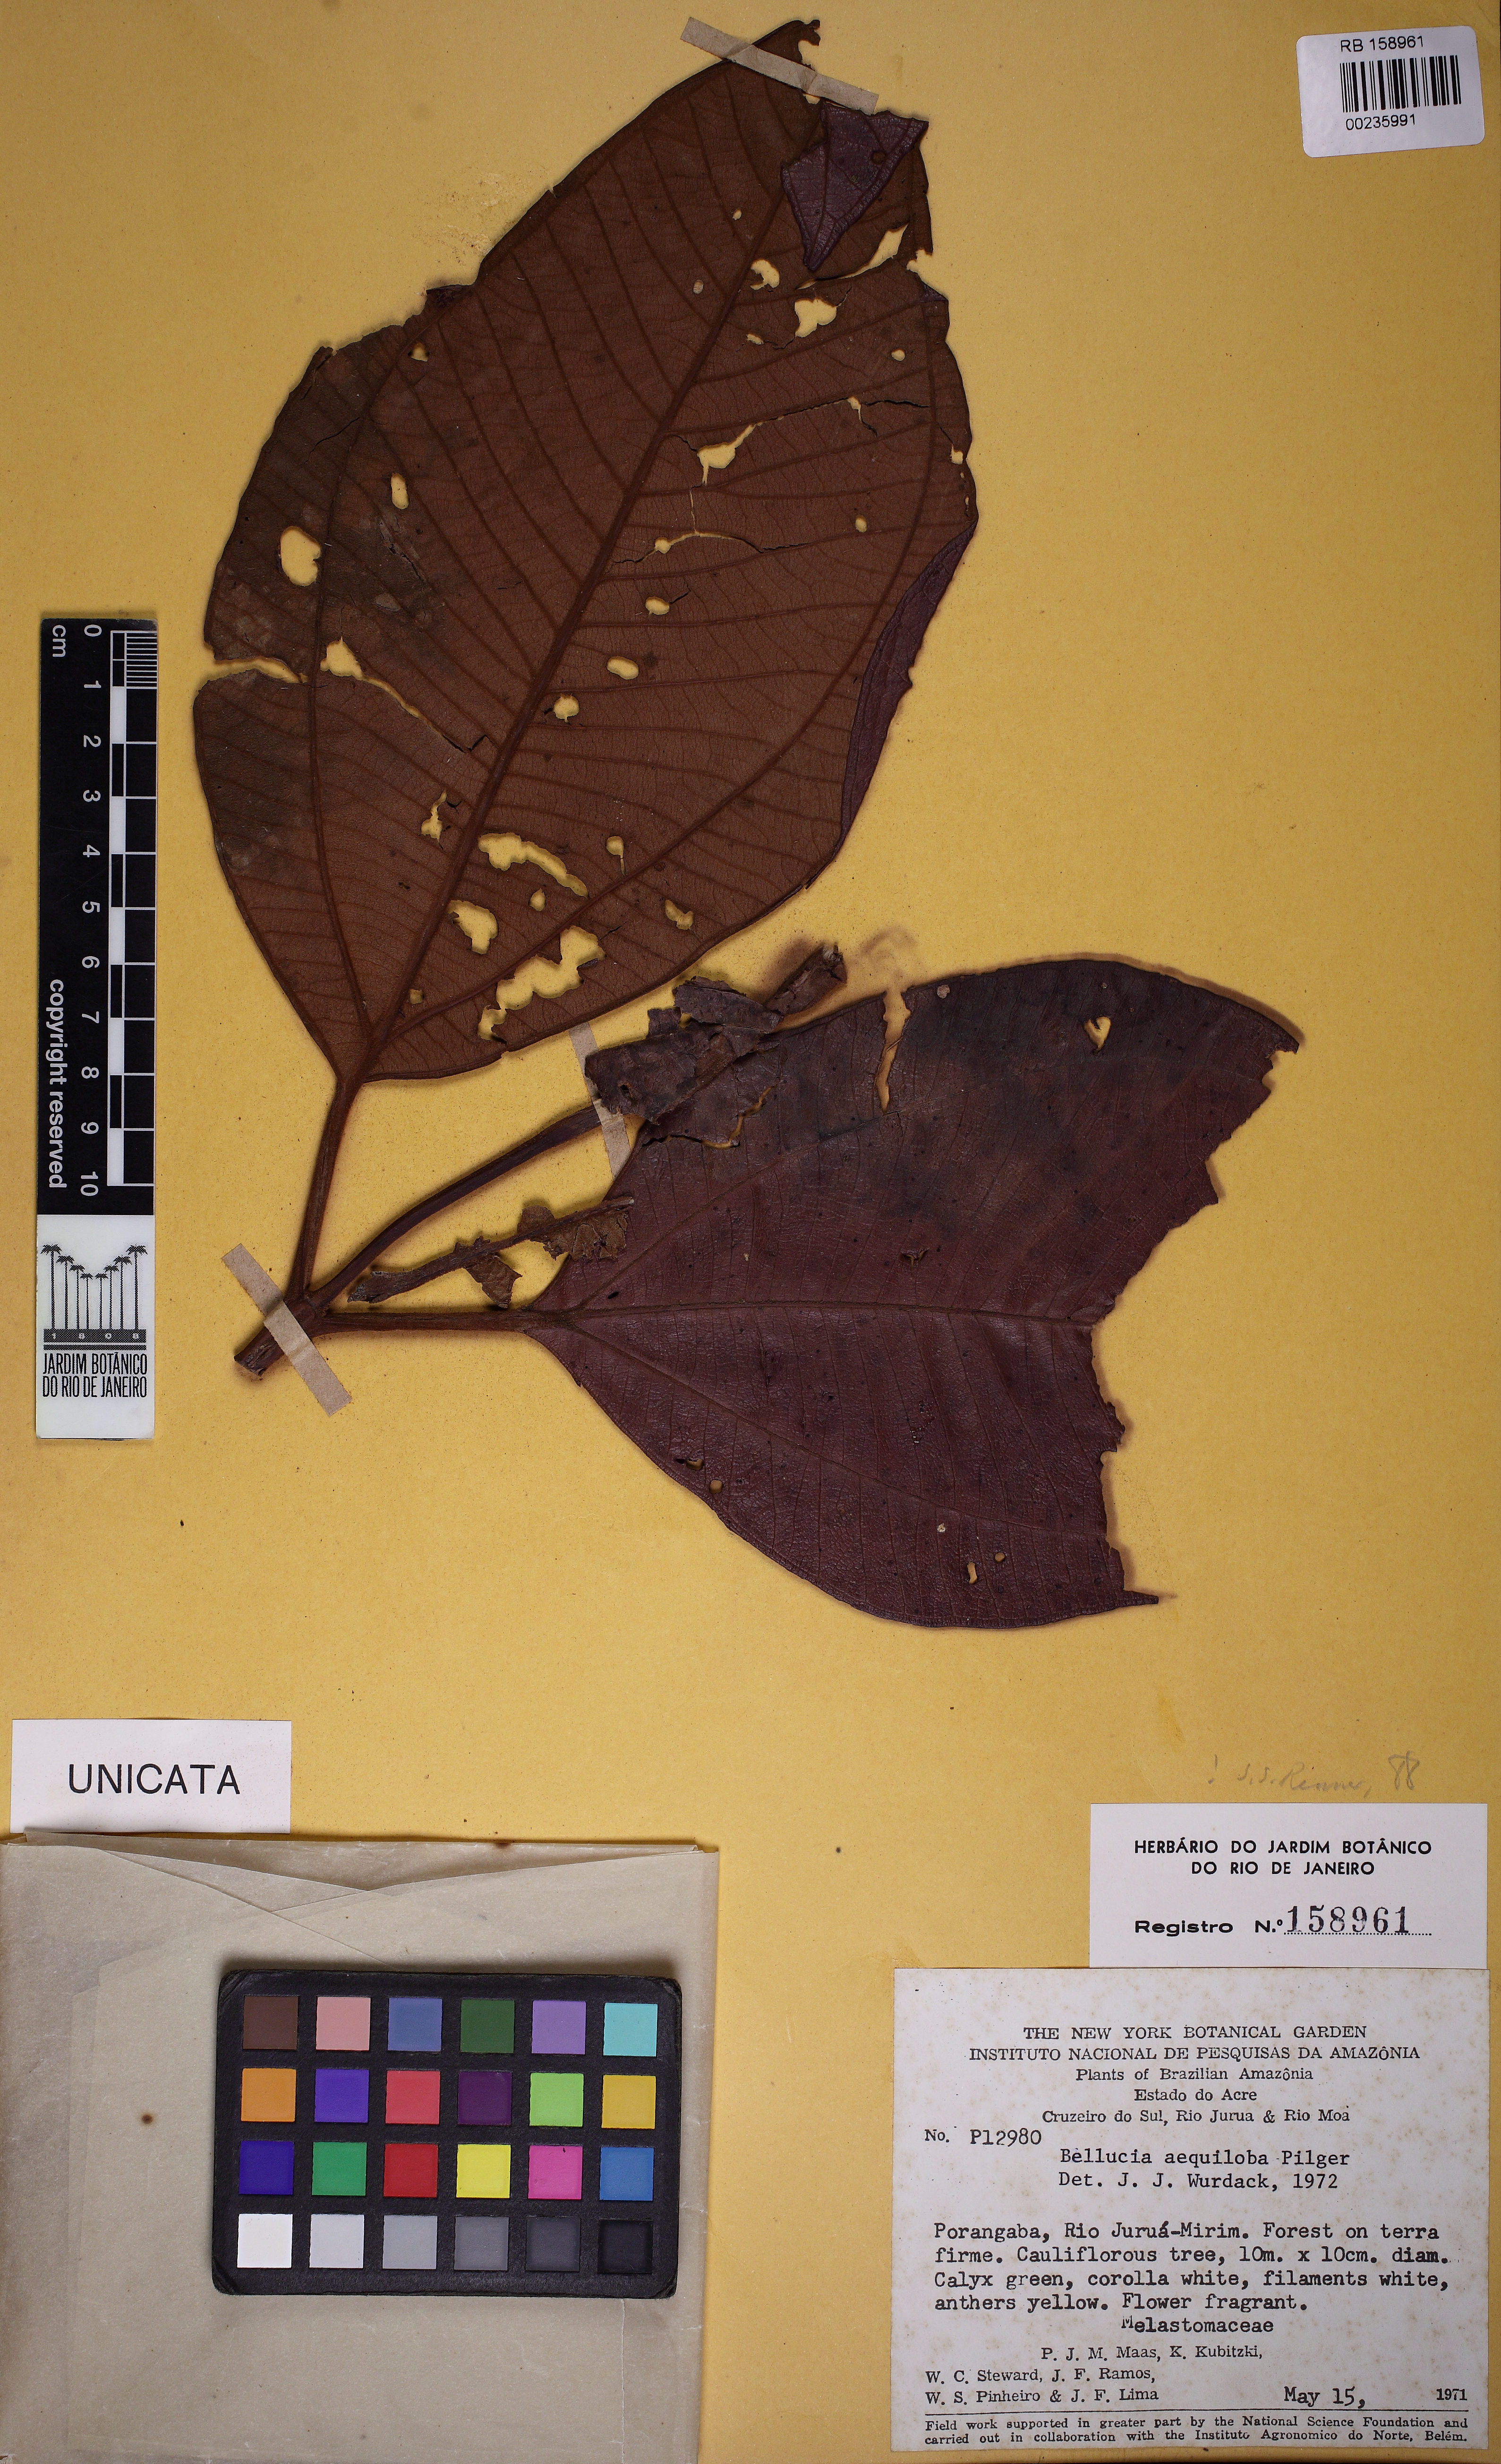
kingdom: Plantae
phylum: Tracheophyta
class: Magnoliopsida
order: Myrtales
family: Melastomataceae
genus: Bellucia
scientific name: Bellucia aequiloba
